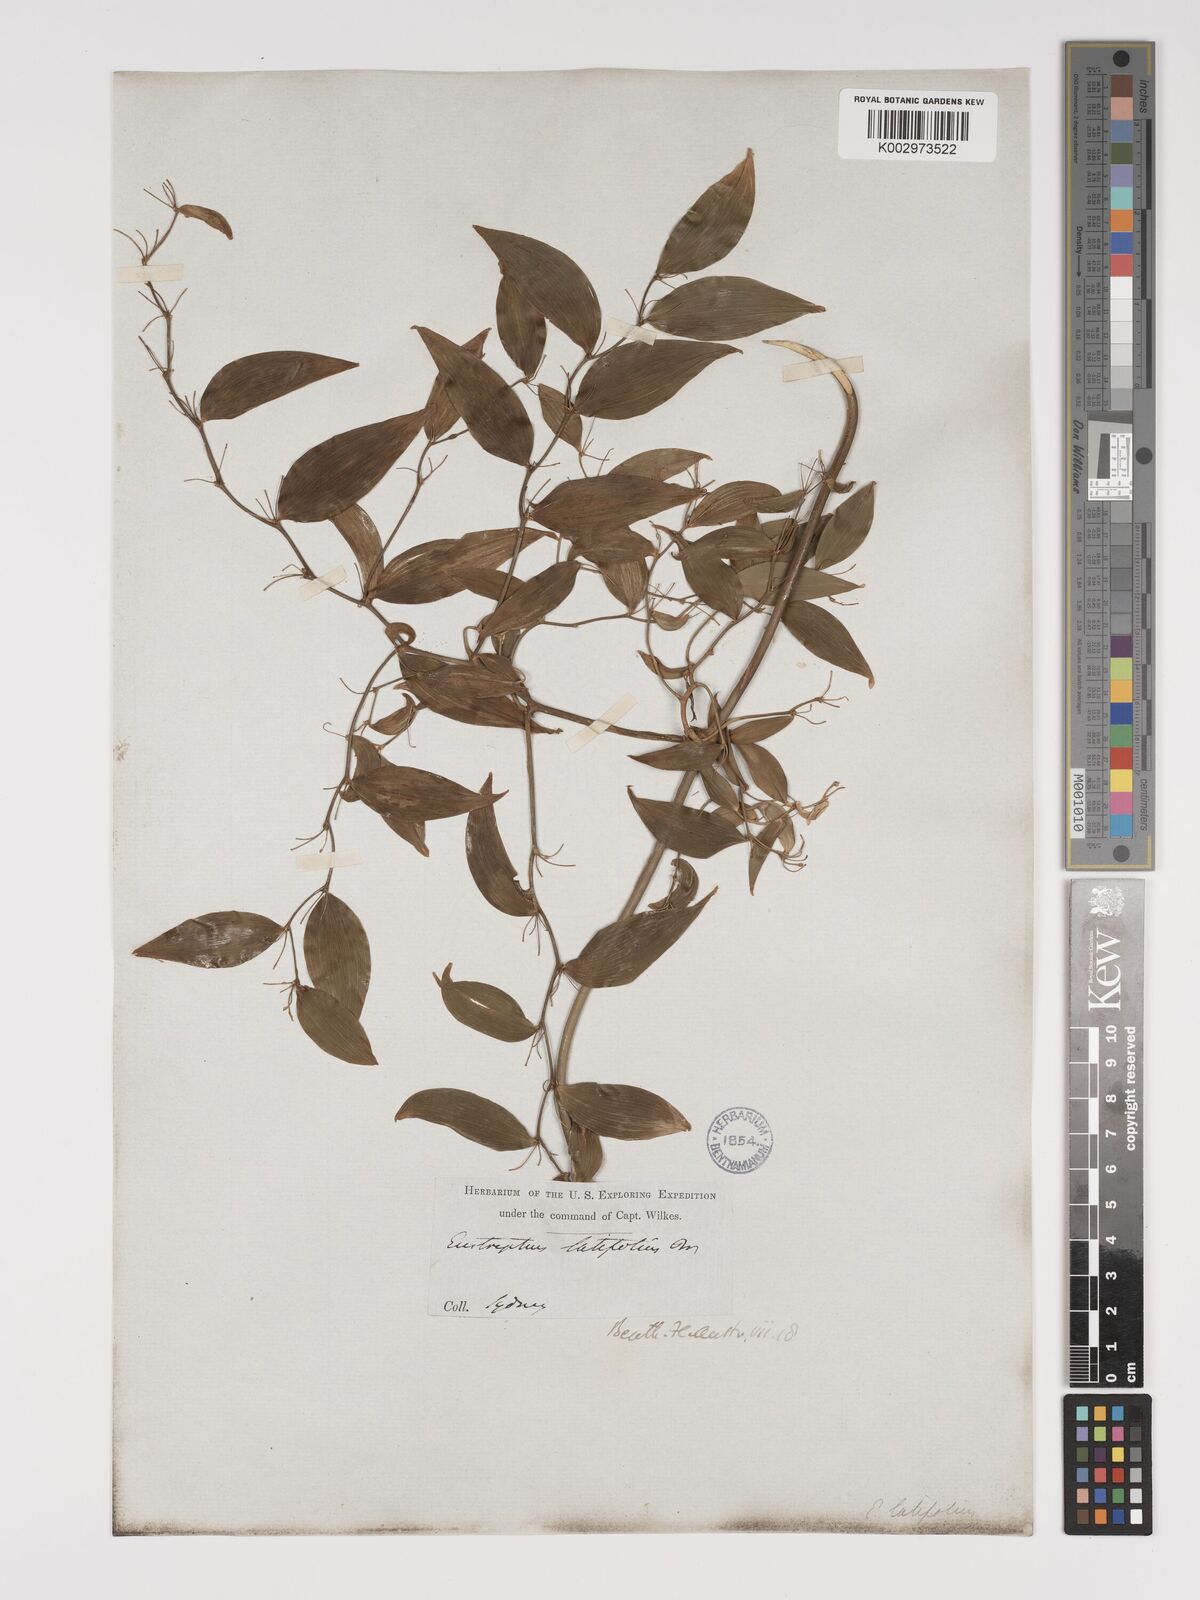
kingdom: Plantae
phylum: Tracheophyta
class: Liliopsida
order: Asparagales
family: Asparagaceae
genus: Eustrephus
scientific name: Eustrephus latifolius
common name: Orangevine
